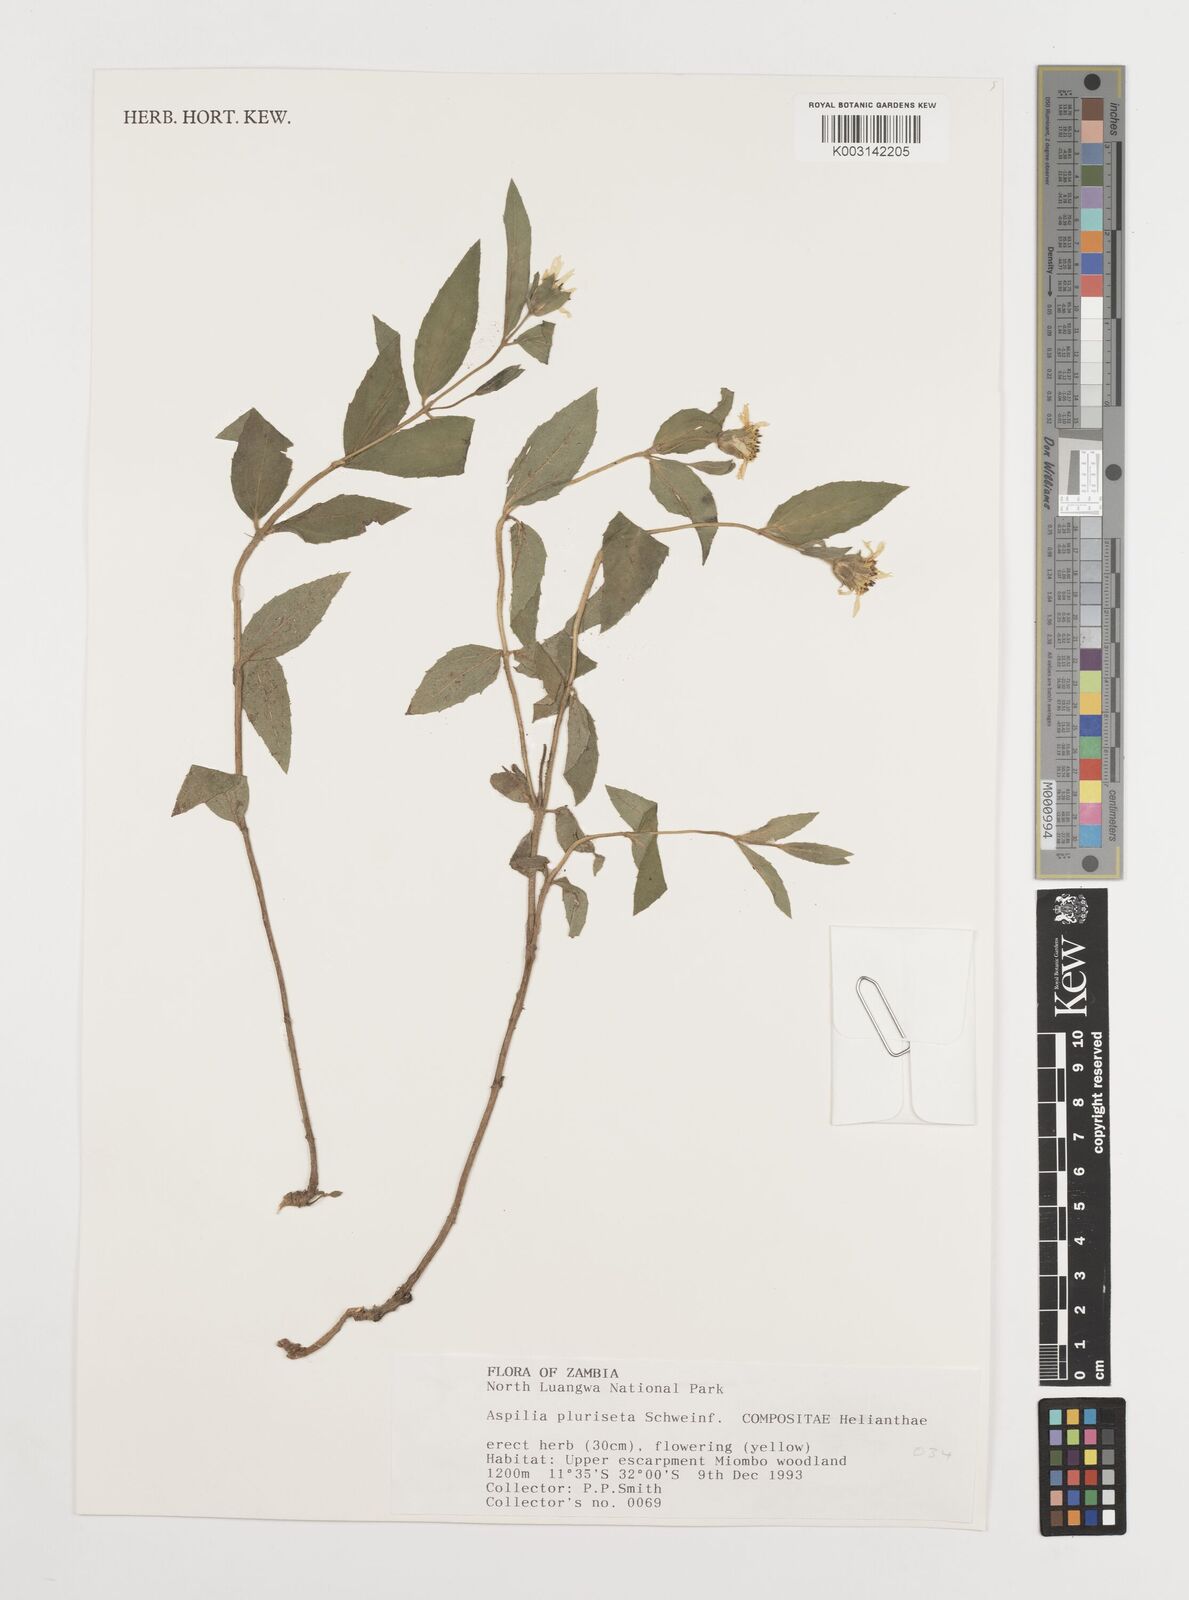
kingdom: Plantae
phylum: Tracheophyta
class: Magnoliopsida
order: Asterales
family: Asteraceae
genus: Aspilia
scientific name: Aspilia pluriseta
